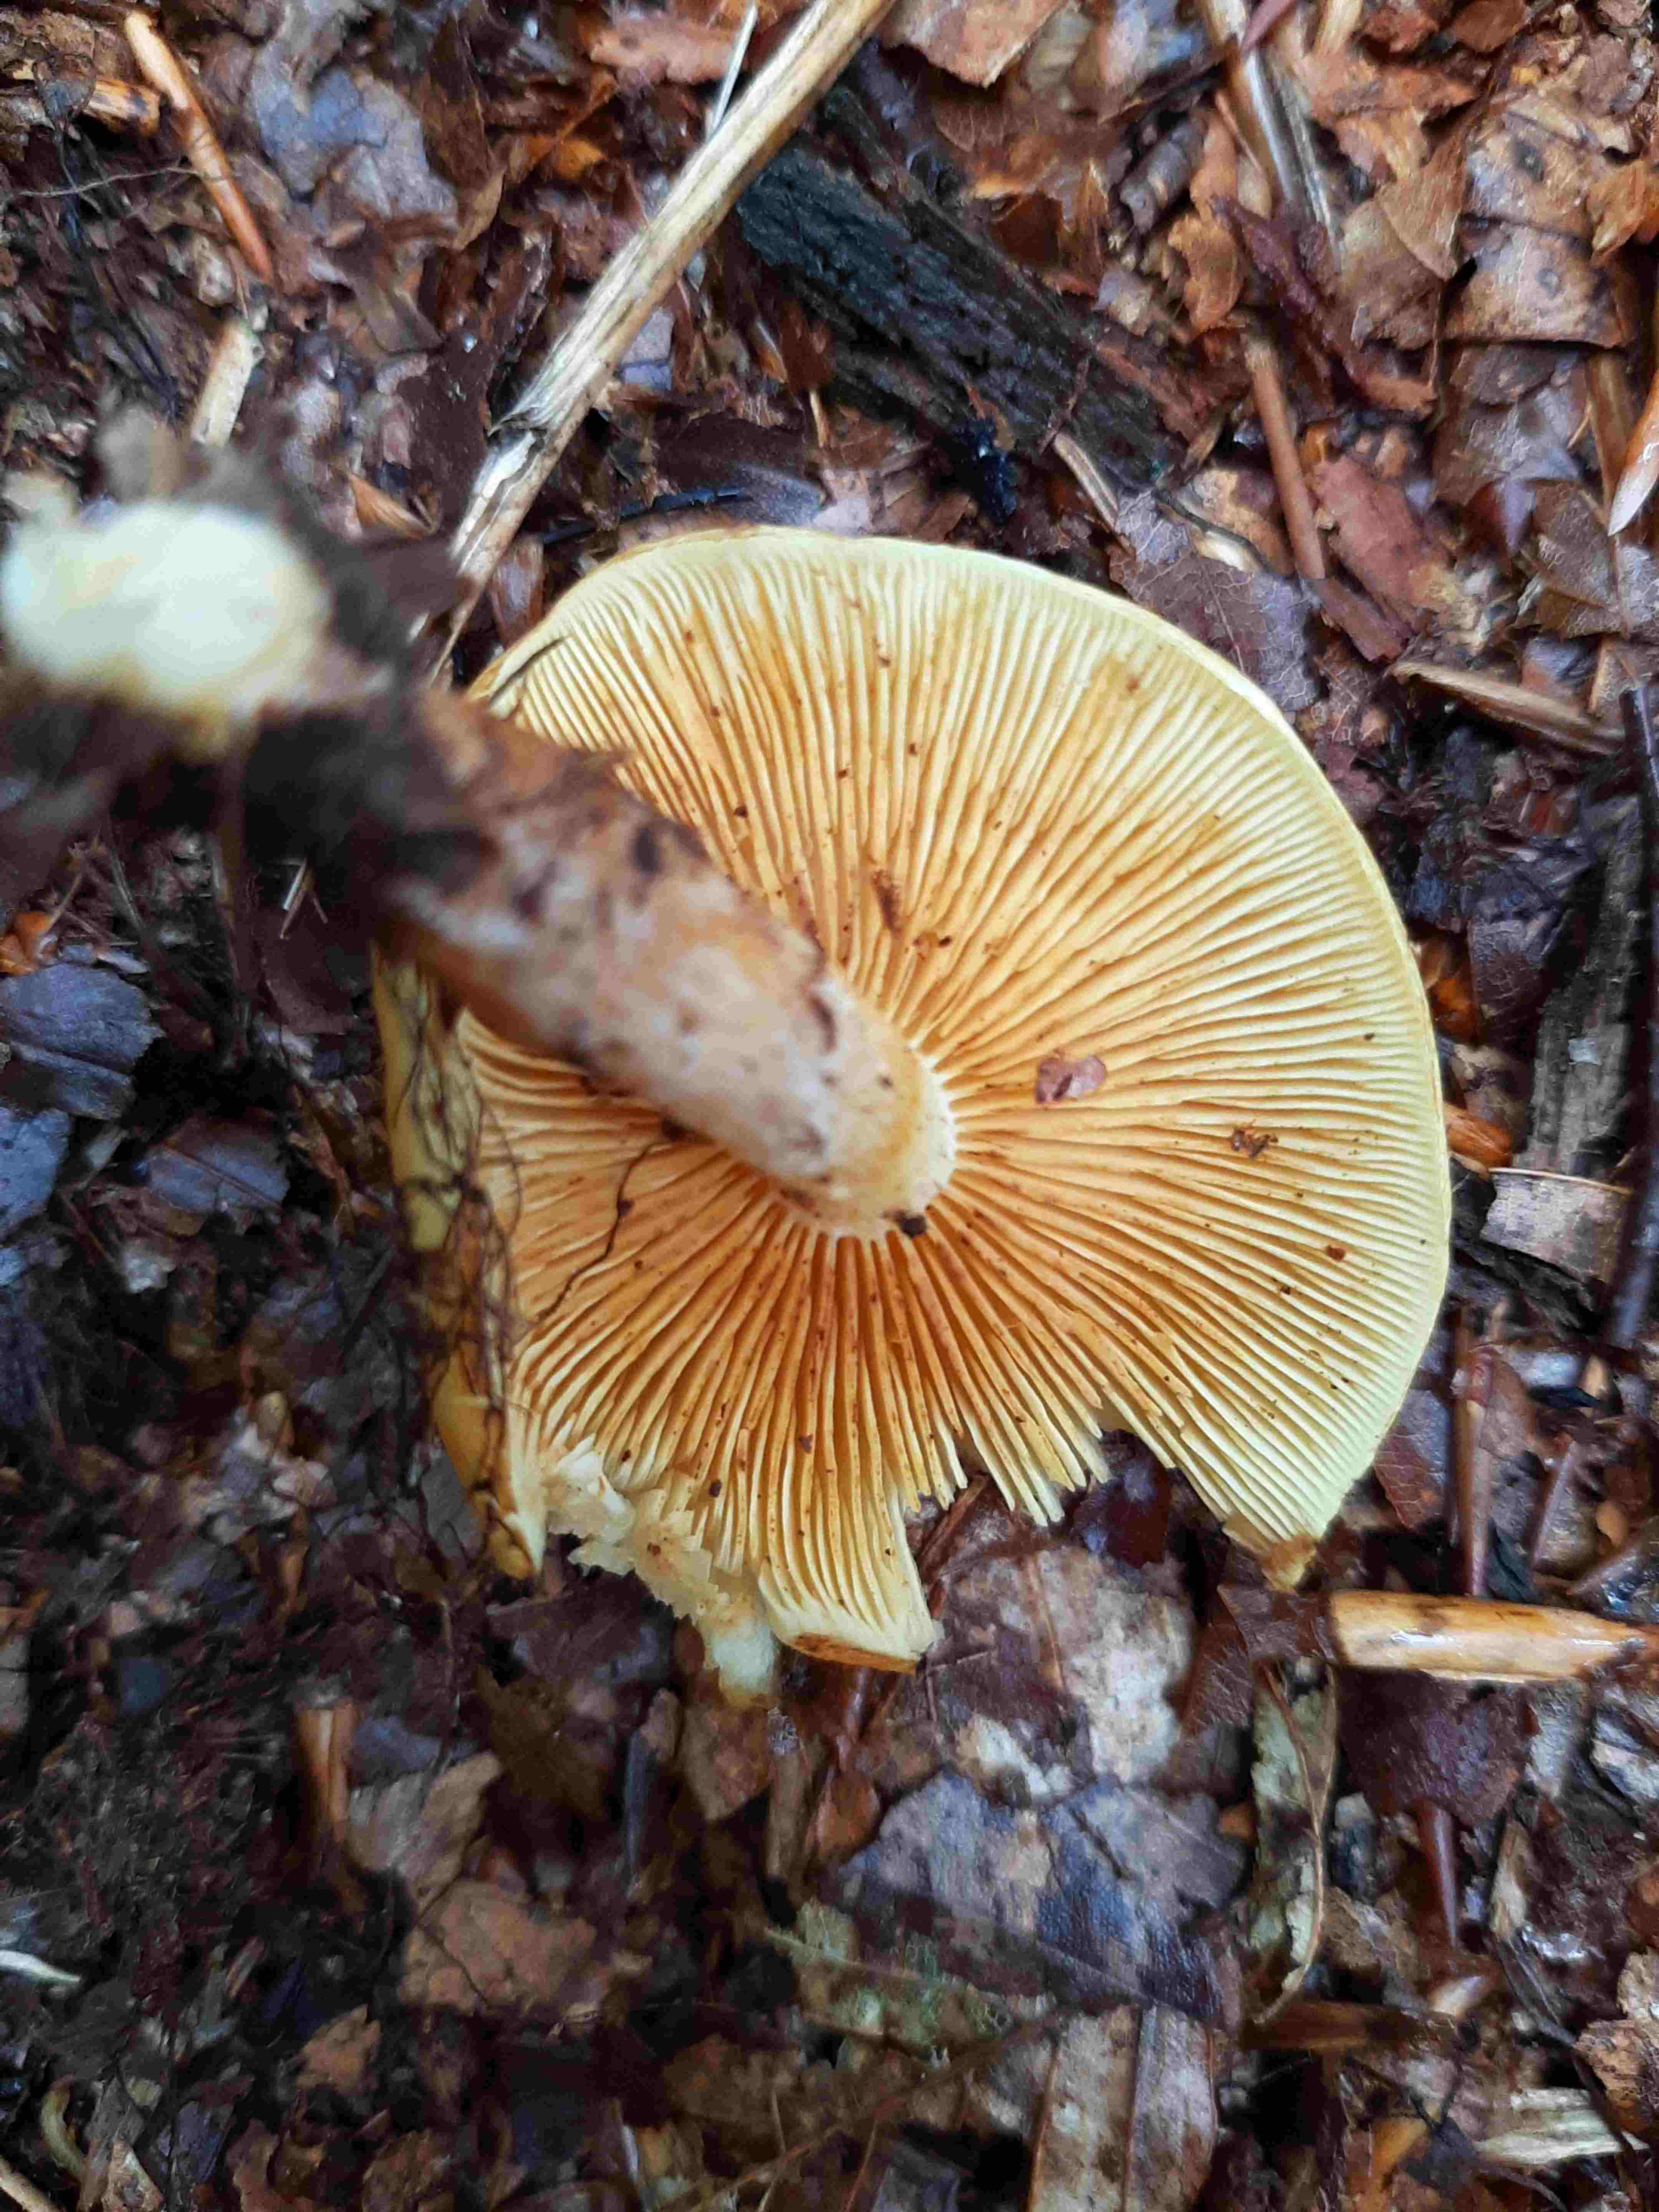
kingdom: Fungi
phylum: Basidiomycota
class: Agaricomycetes
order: Agaricales
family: Hymenogastraceae
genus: Gymnopilus
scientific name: Gymnopilus penetrans
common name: plettet flammehat
